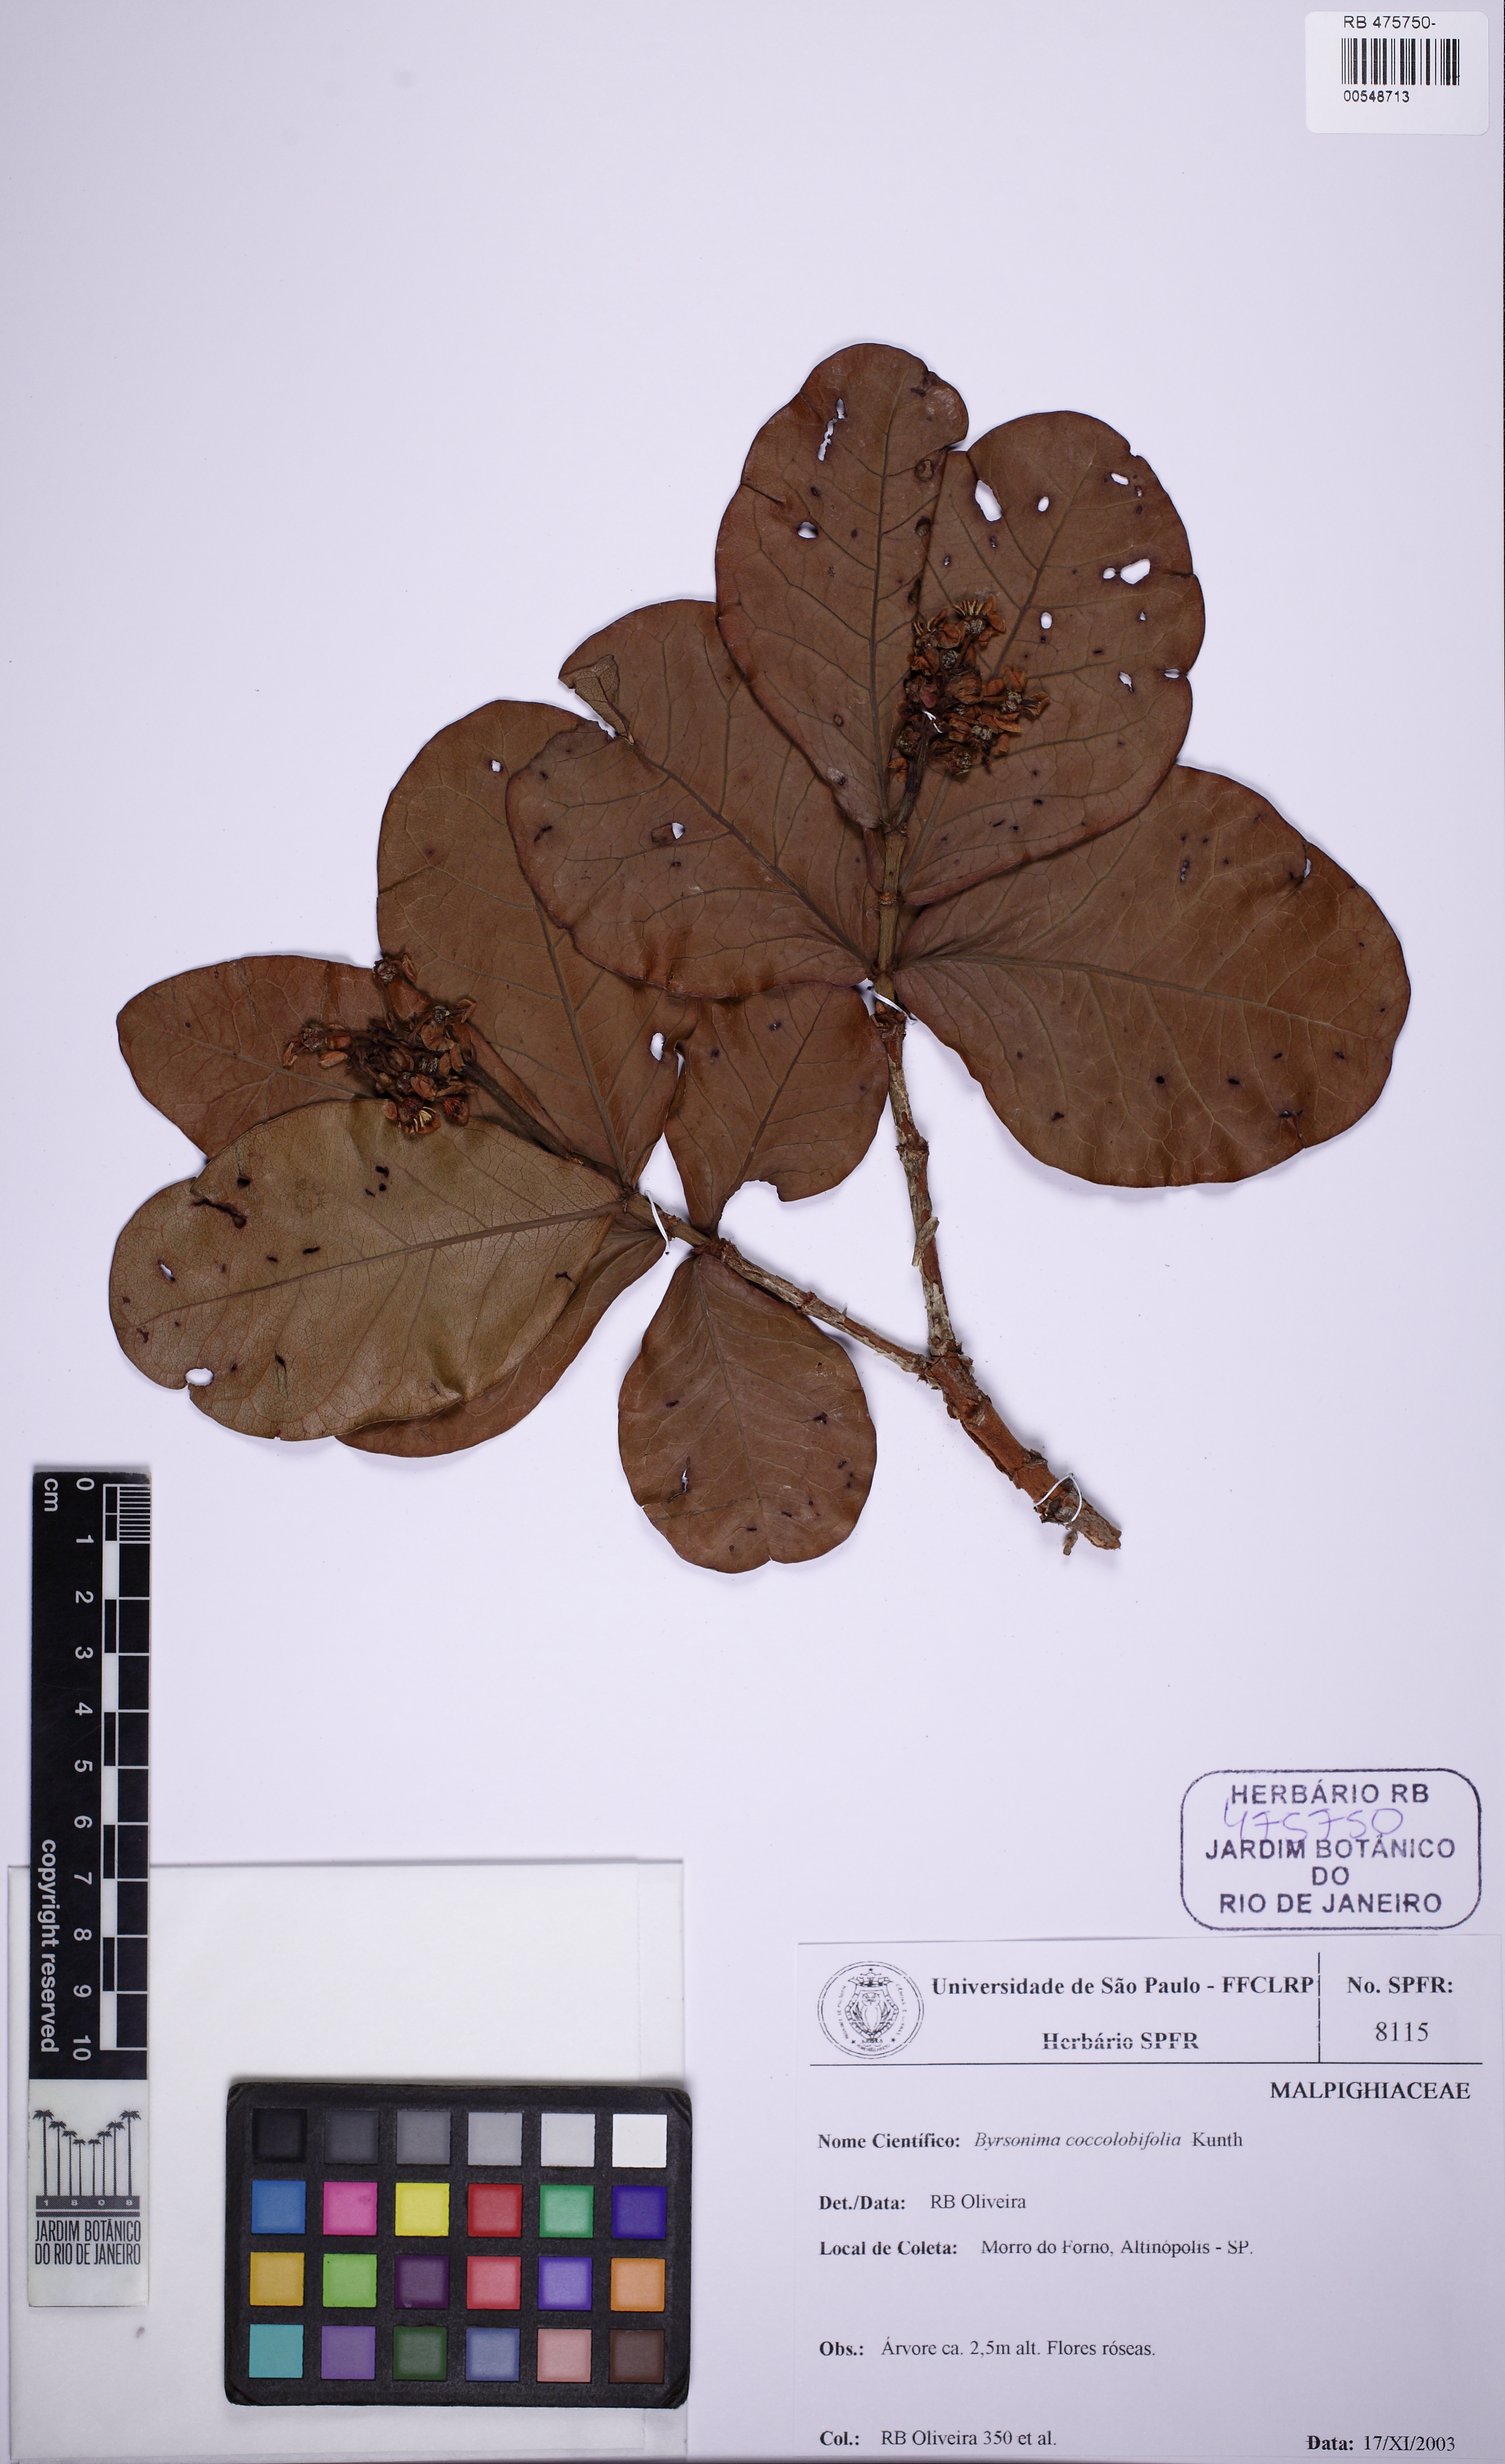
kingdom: Plantae
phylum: Tracheophyta
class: Magnoliopsida
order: Malpighiales
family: Malpighiaceae
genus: Byrsonima
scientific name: Byrsonima coccolobifolia
